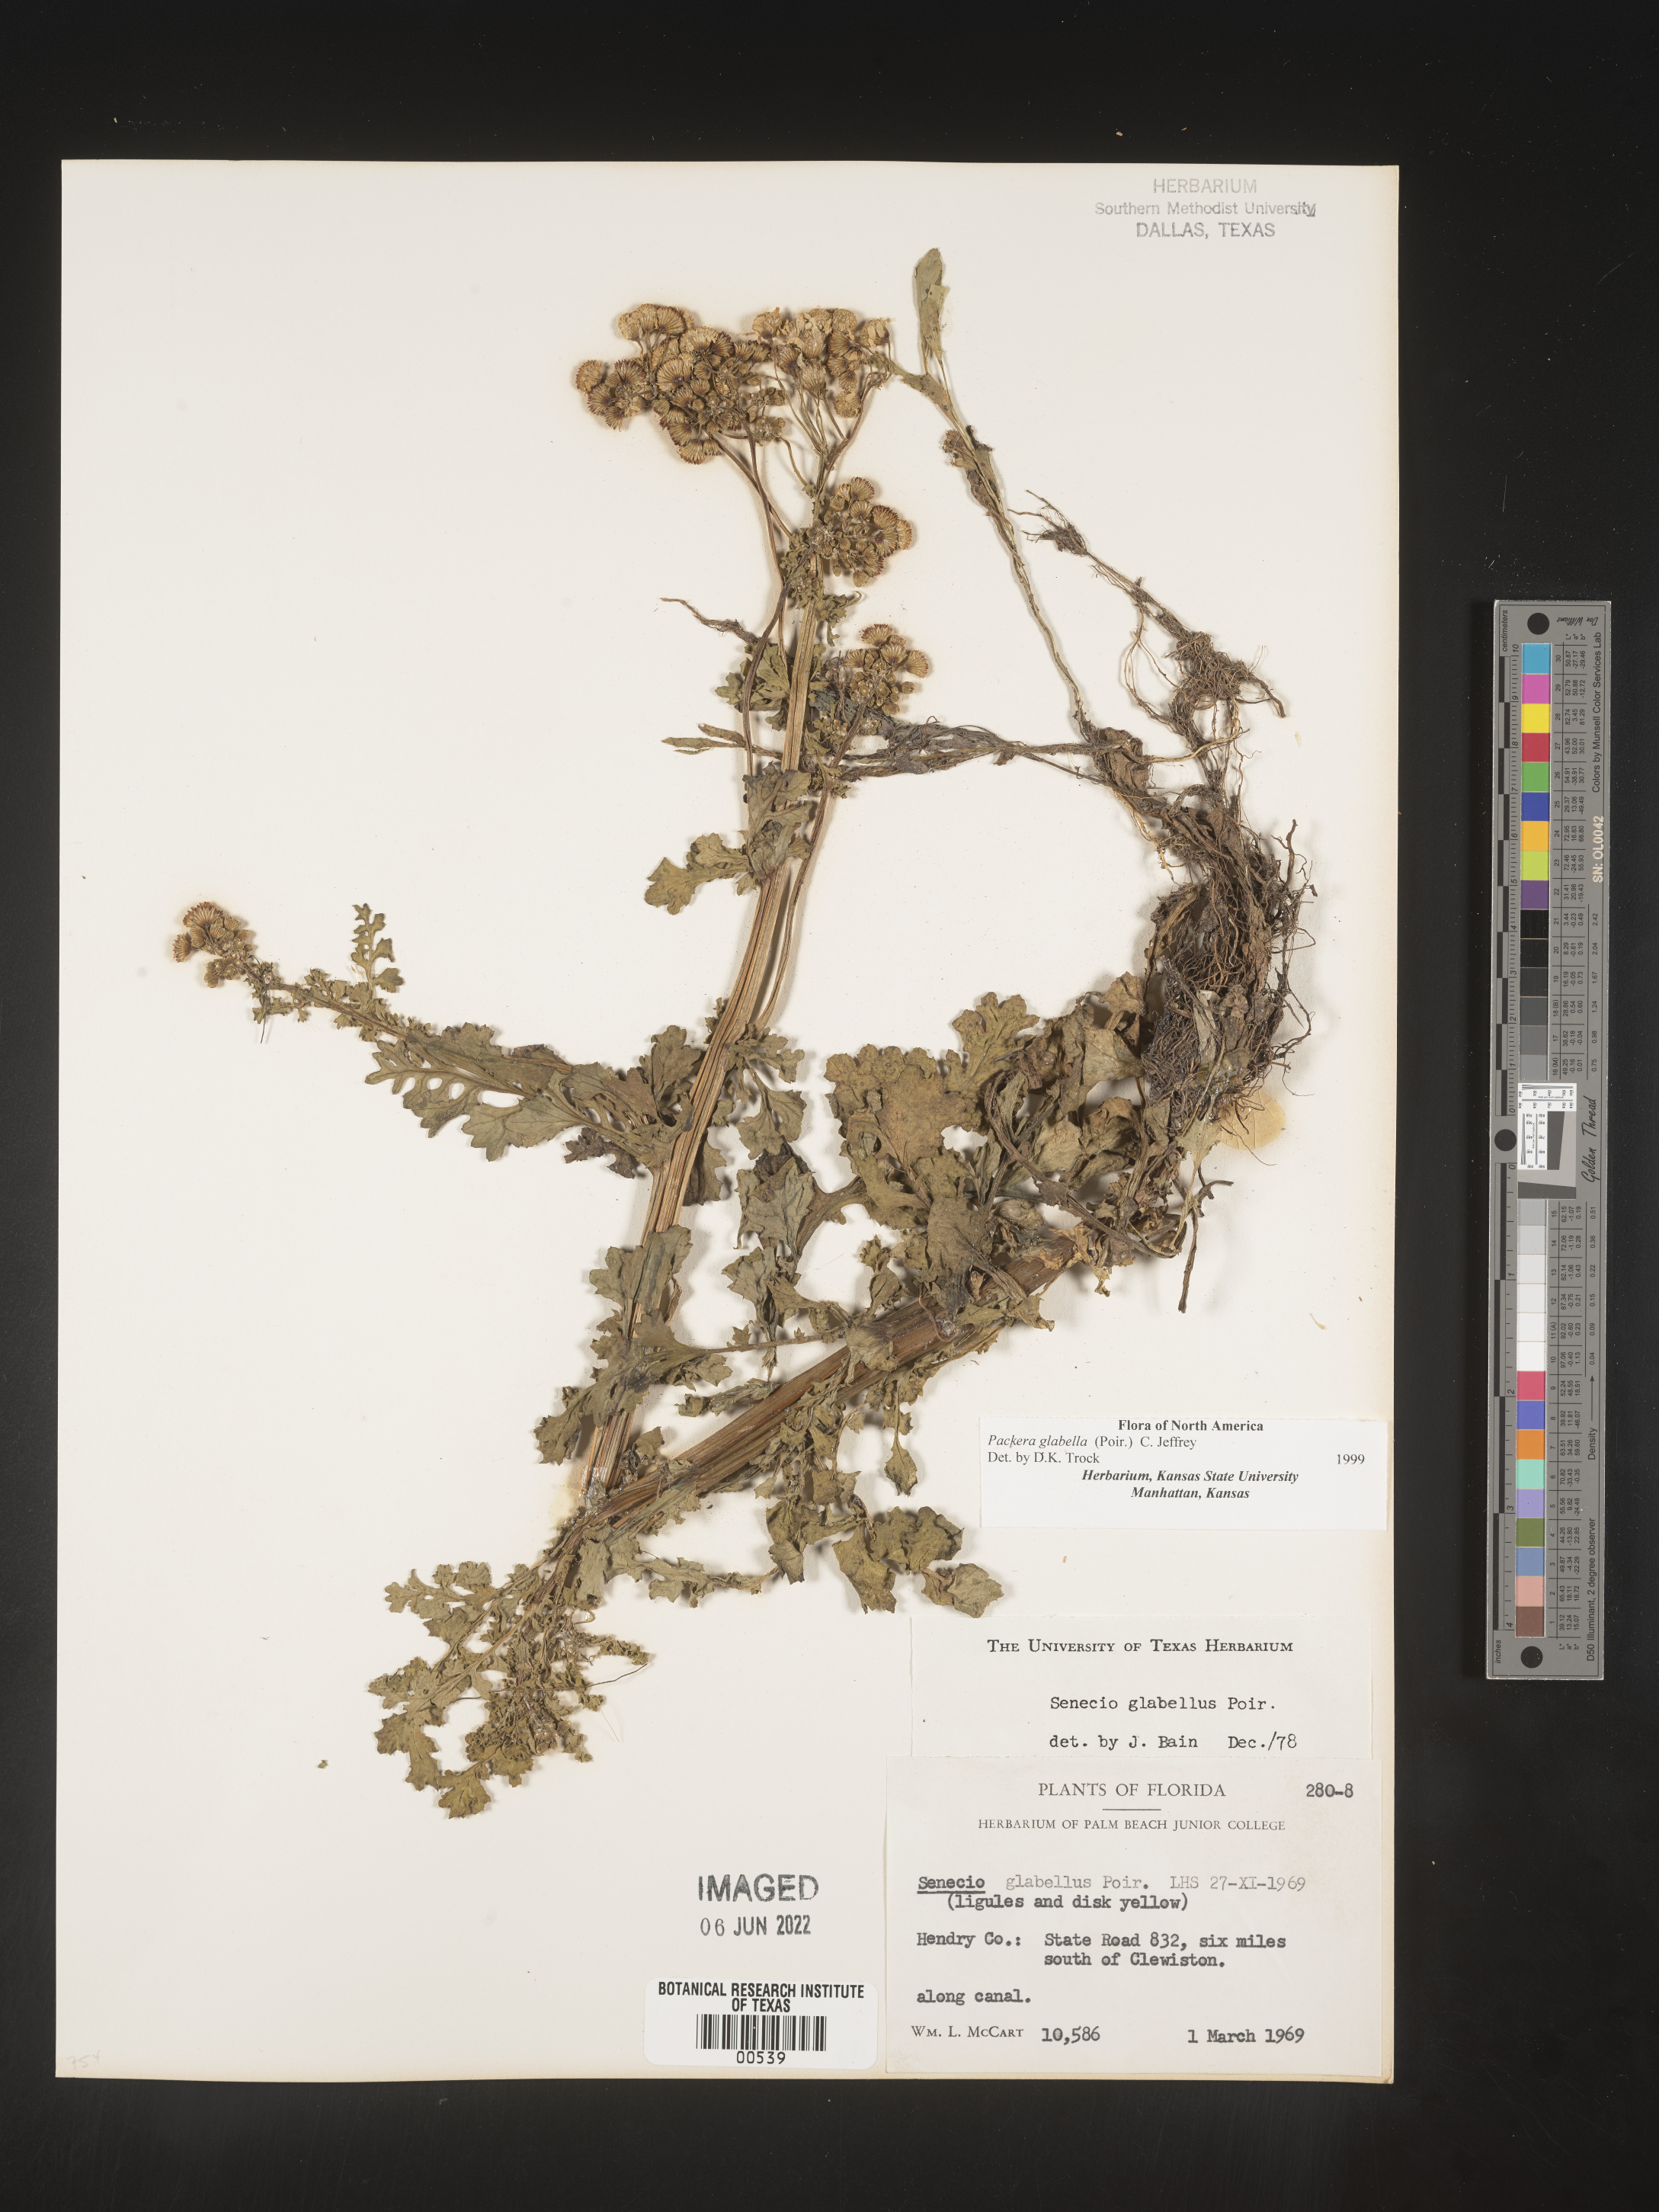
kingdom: Plantae
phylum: Tracheophyta
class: Magnoliopsida
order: Asterales
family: Asteraceae
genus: Packera
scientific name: Packera glabella
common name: Butterweed
